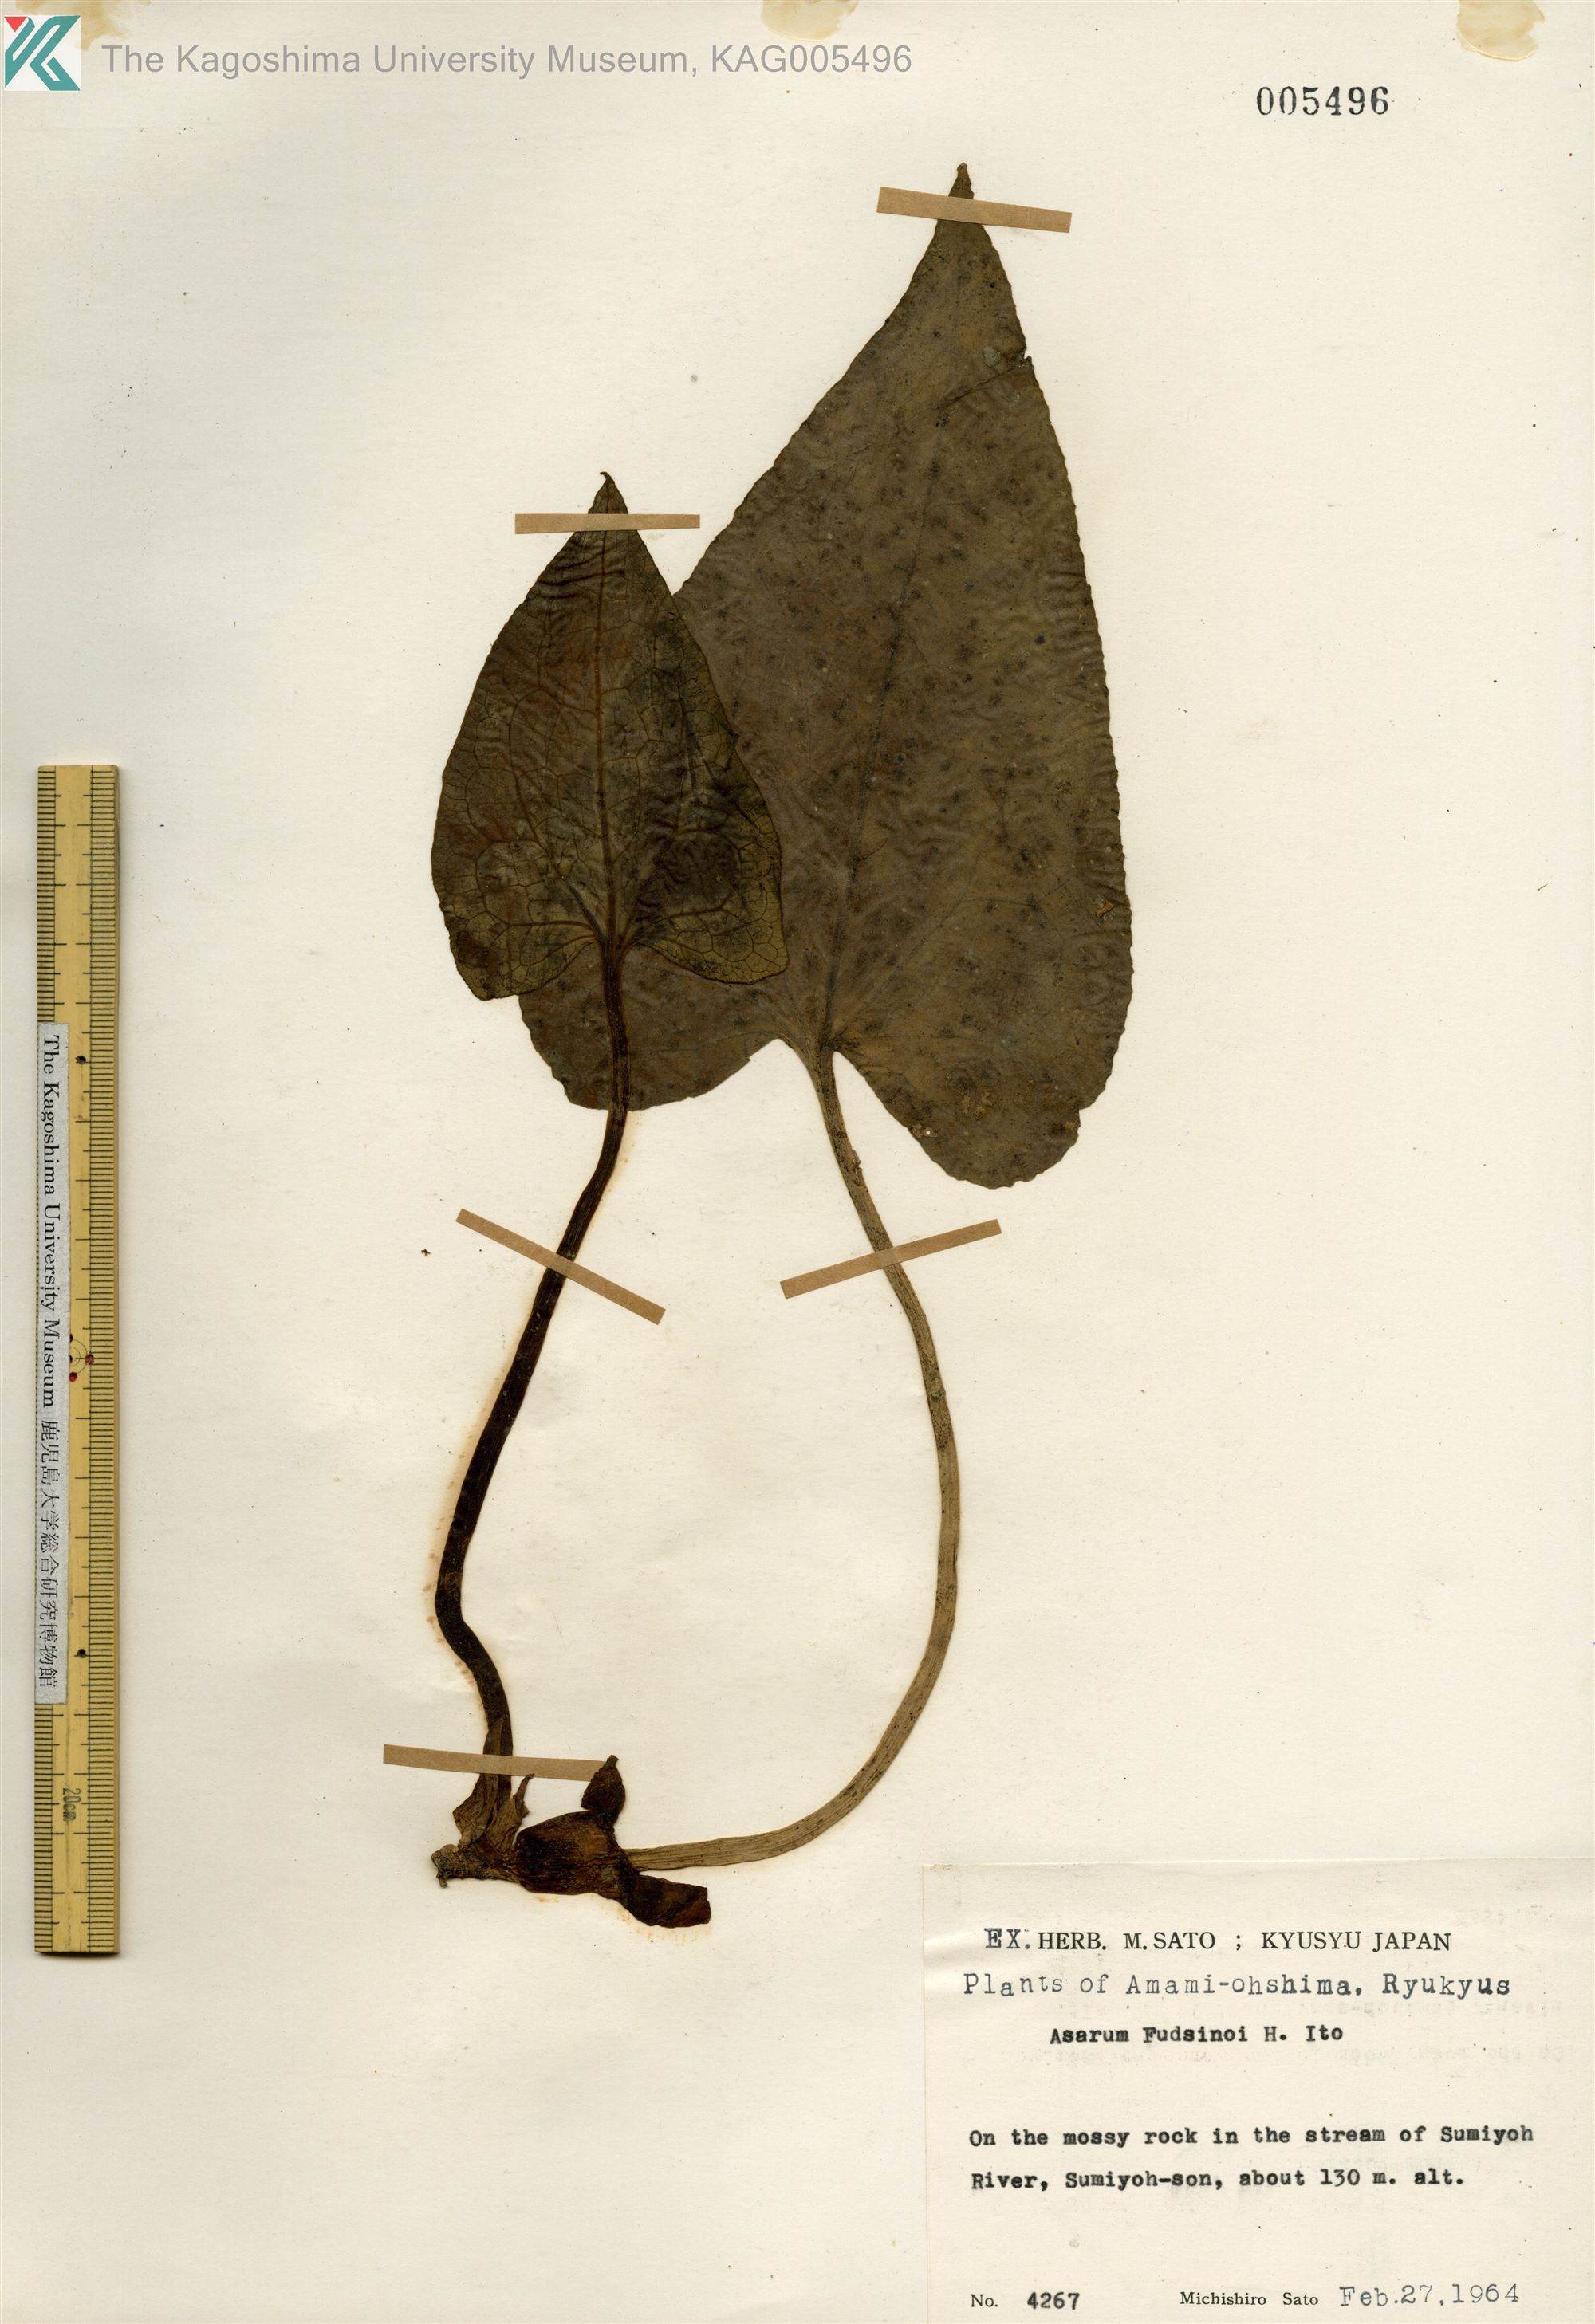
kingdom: Plantae
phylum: Tracheophyta
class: Magnoliopsida
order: Piperales
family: Aristolochiaceae
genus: Asarum
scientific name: Asarum
